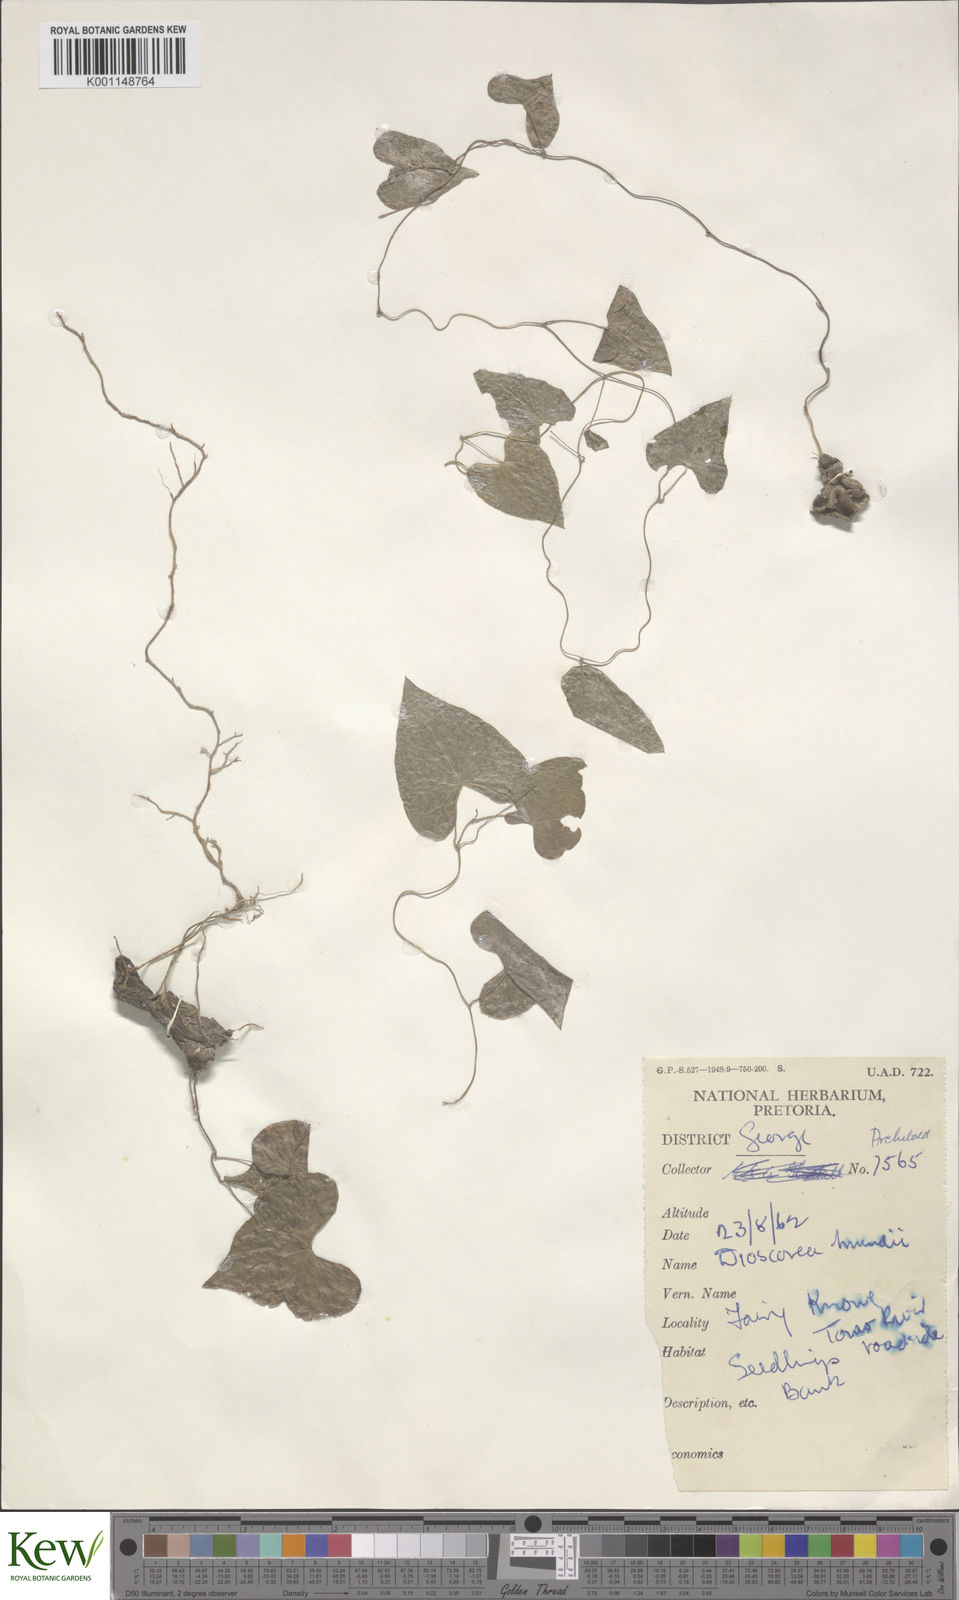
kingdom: Plantae
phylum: Tracheophyta
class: Liliopsida
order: Dioscoreales
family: Dioscoreaceae
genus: Dioscorea
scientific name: Dioscorea mundii
